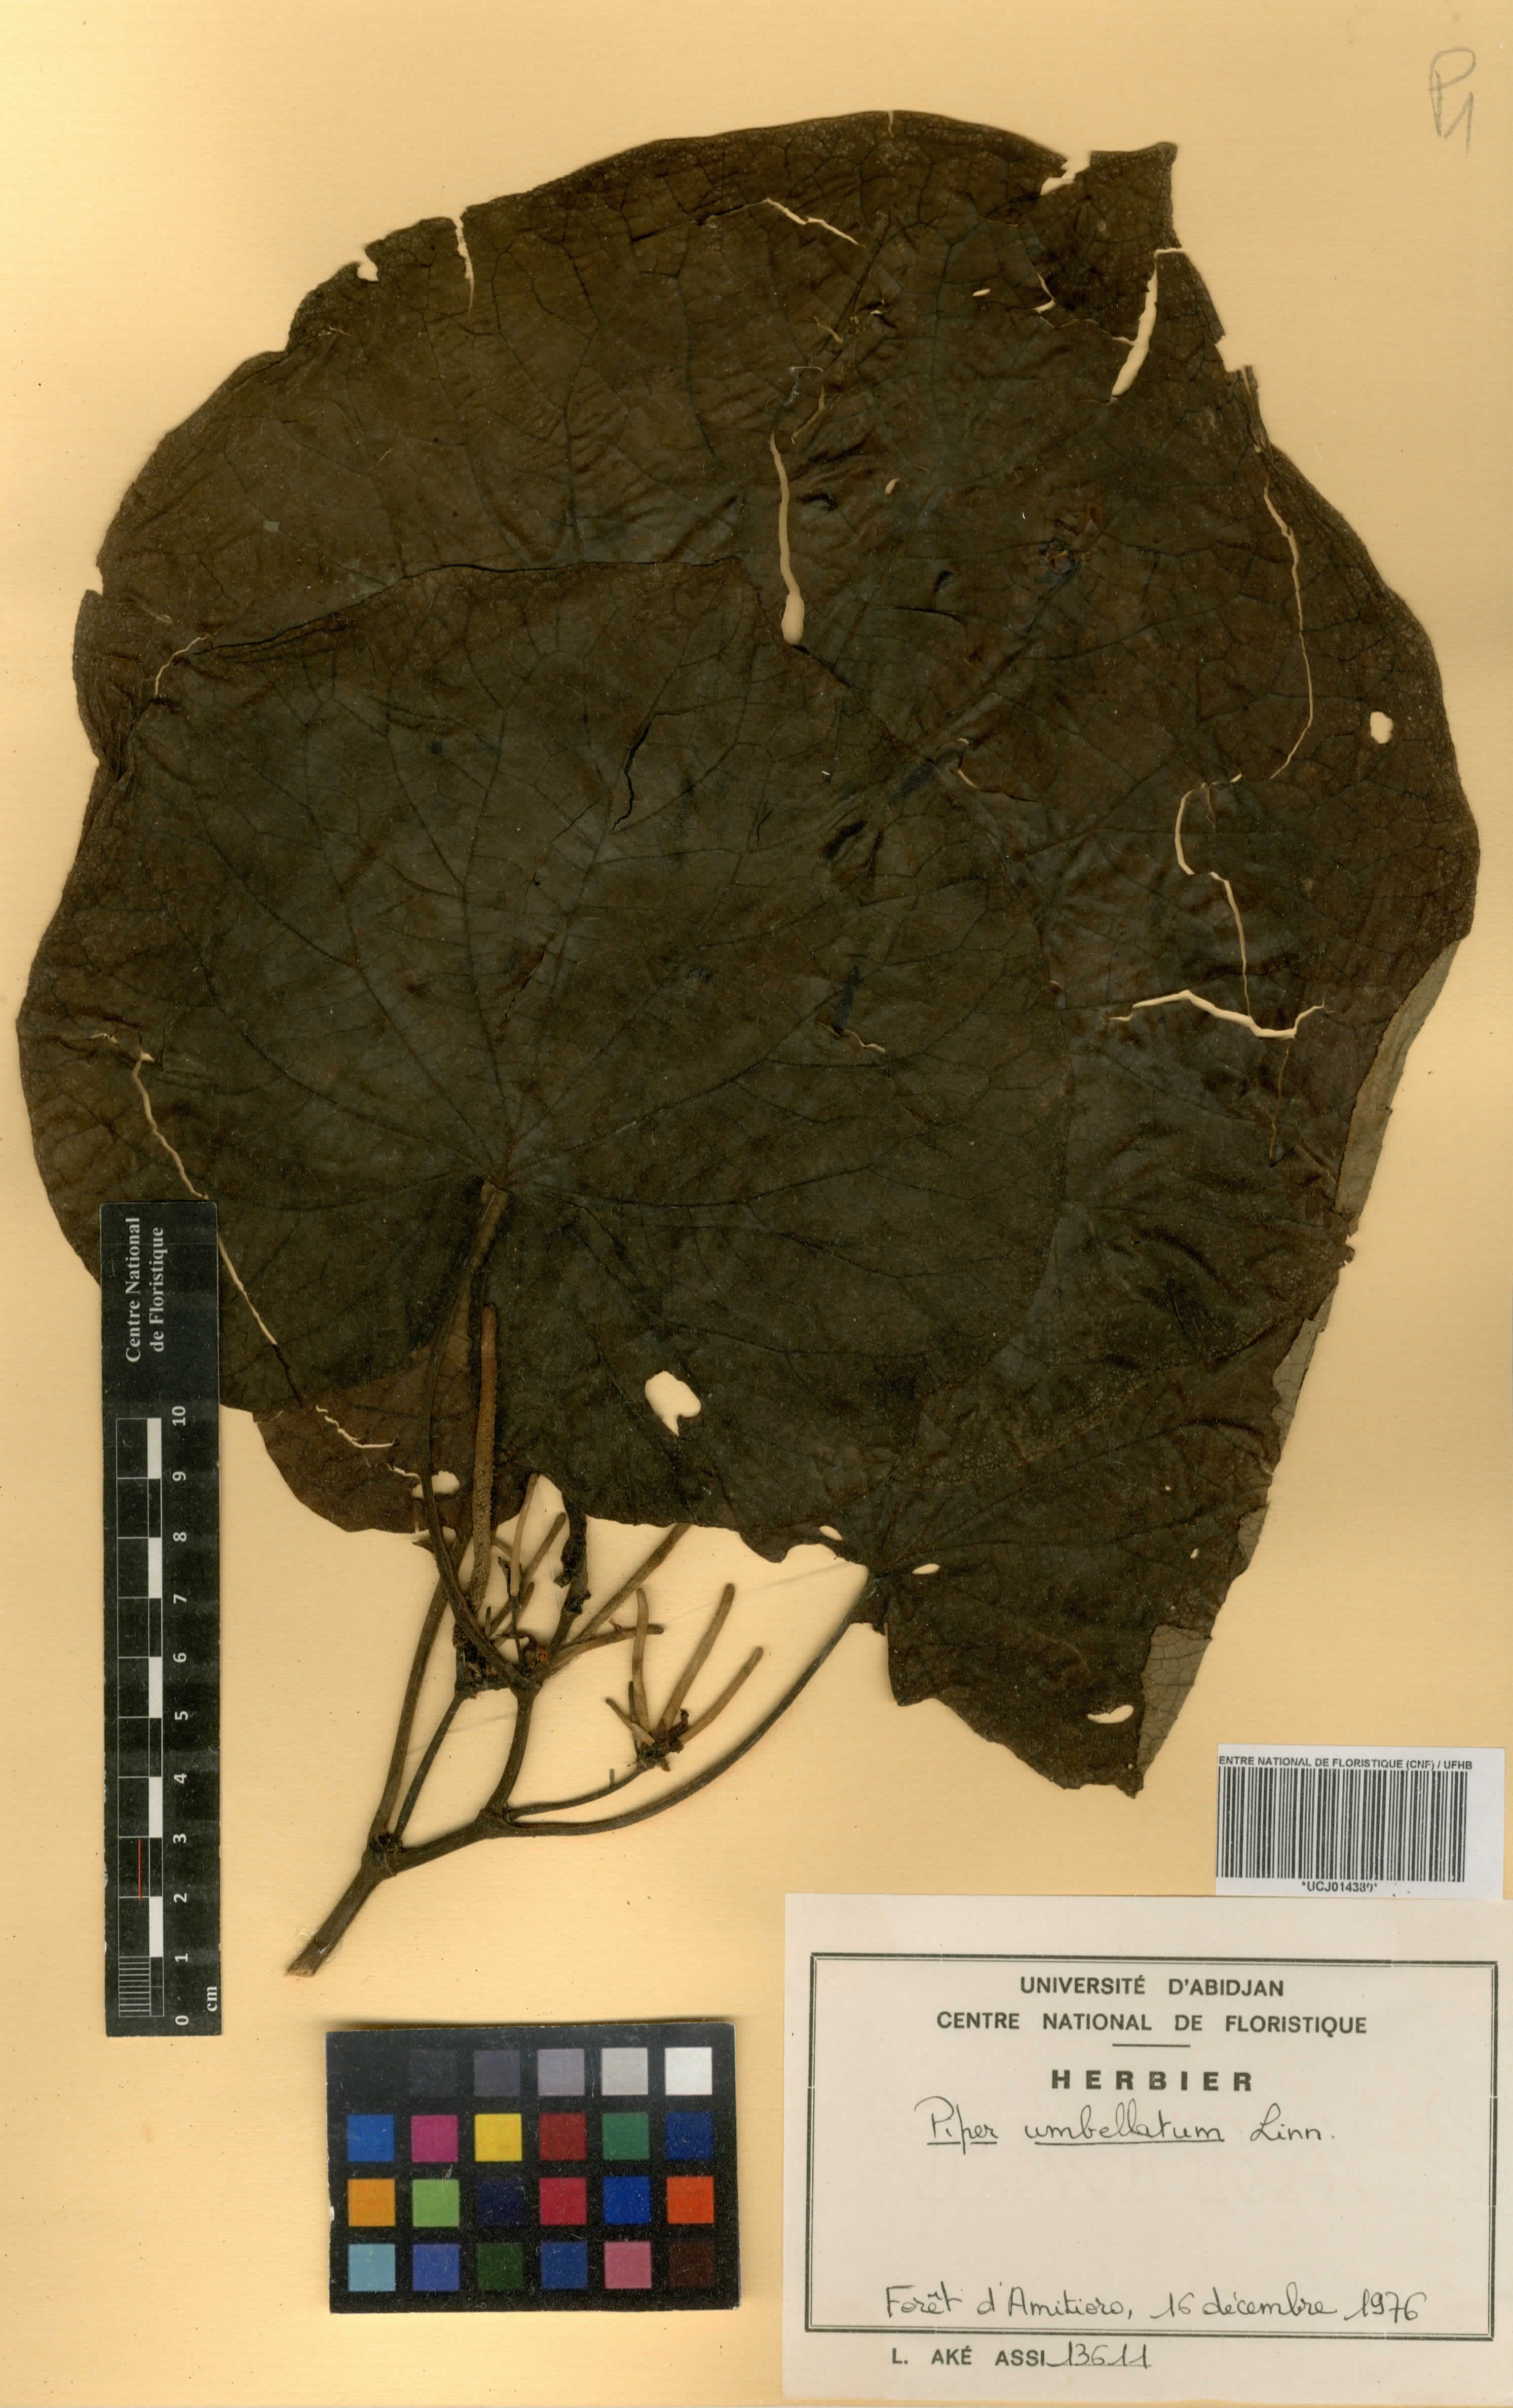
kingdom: Plantae
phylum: Tracheophyta
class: Magnoliopsida
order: Piperales
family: Piperaceae
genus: Piper
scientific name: Piper umbellatum
